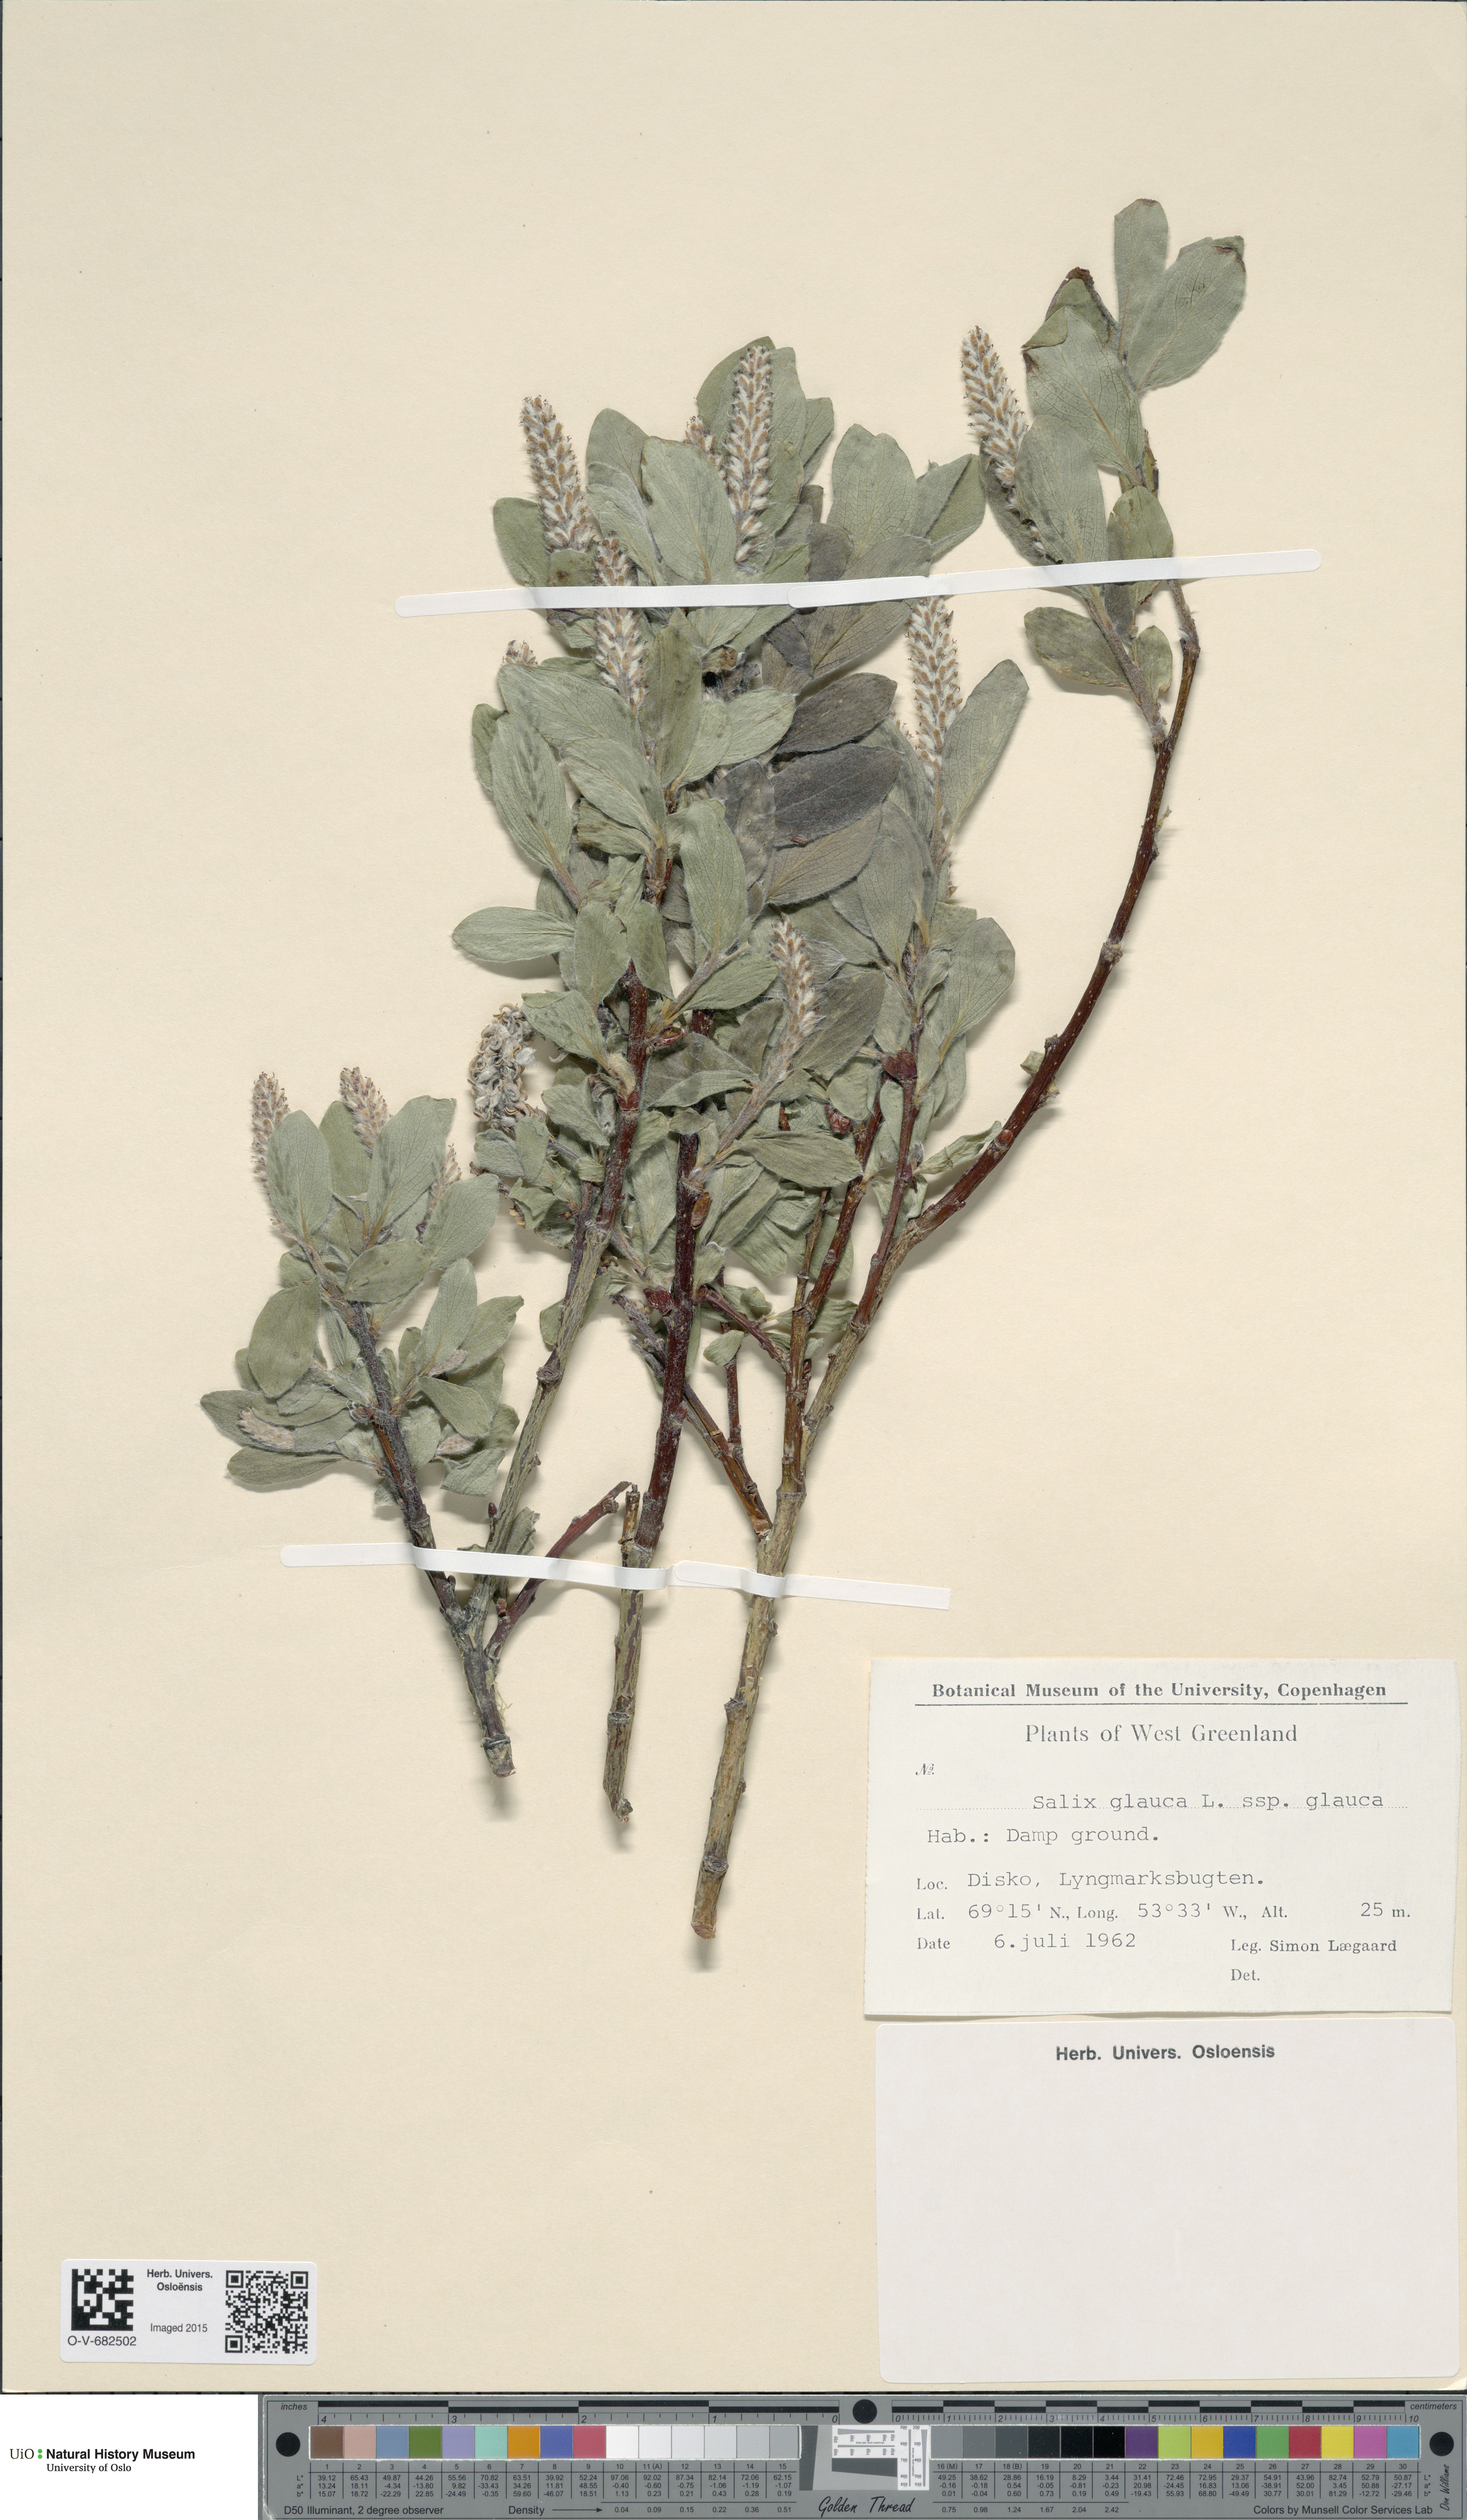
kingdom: Plantae
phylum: Tracheophyta
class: Magnoliopsida
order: Malpighiales
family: Salicaceae
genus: Salix
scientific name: Salix glauca
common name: Glaucous willow
